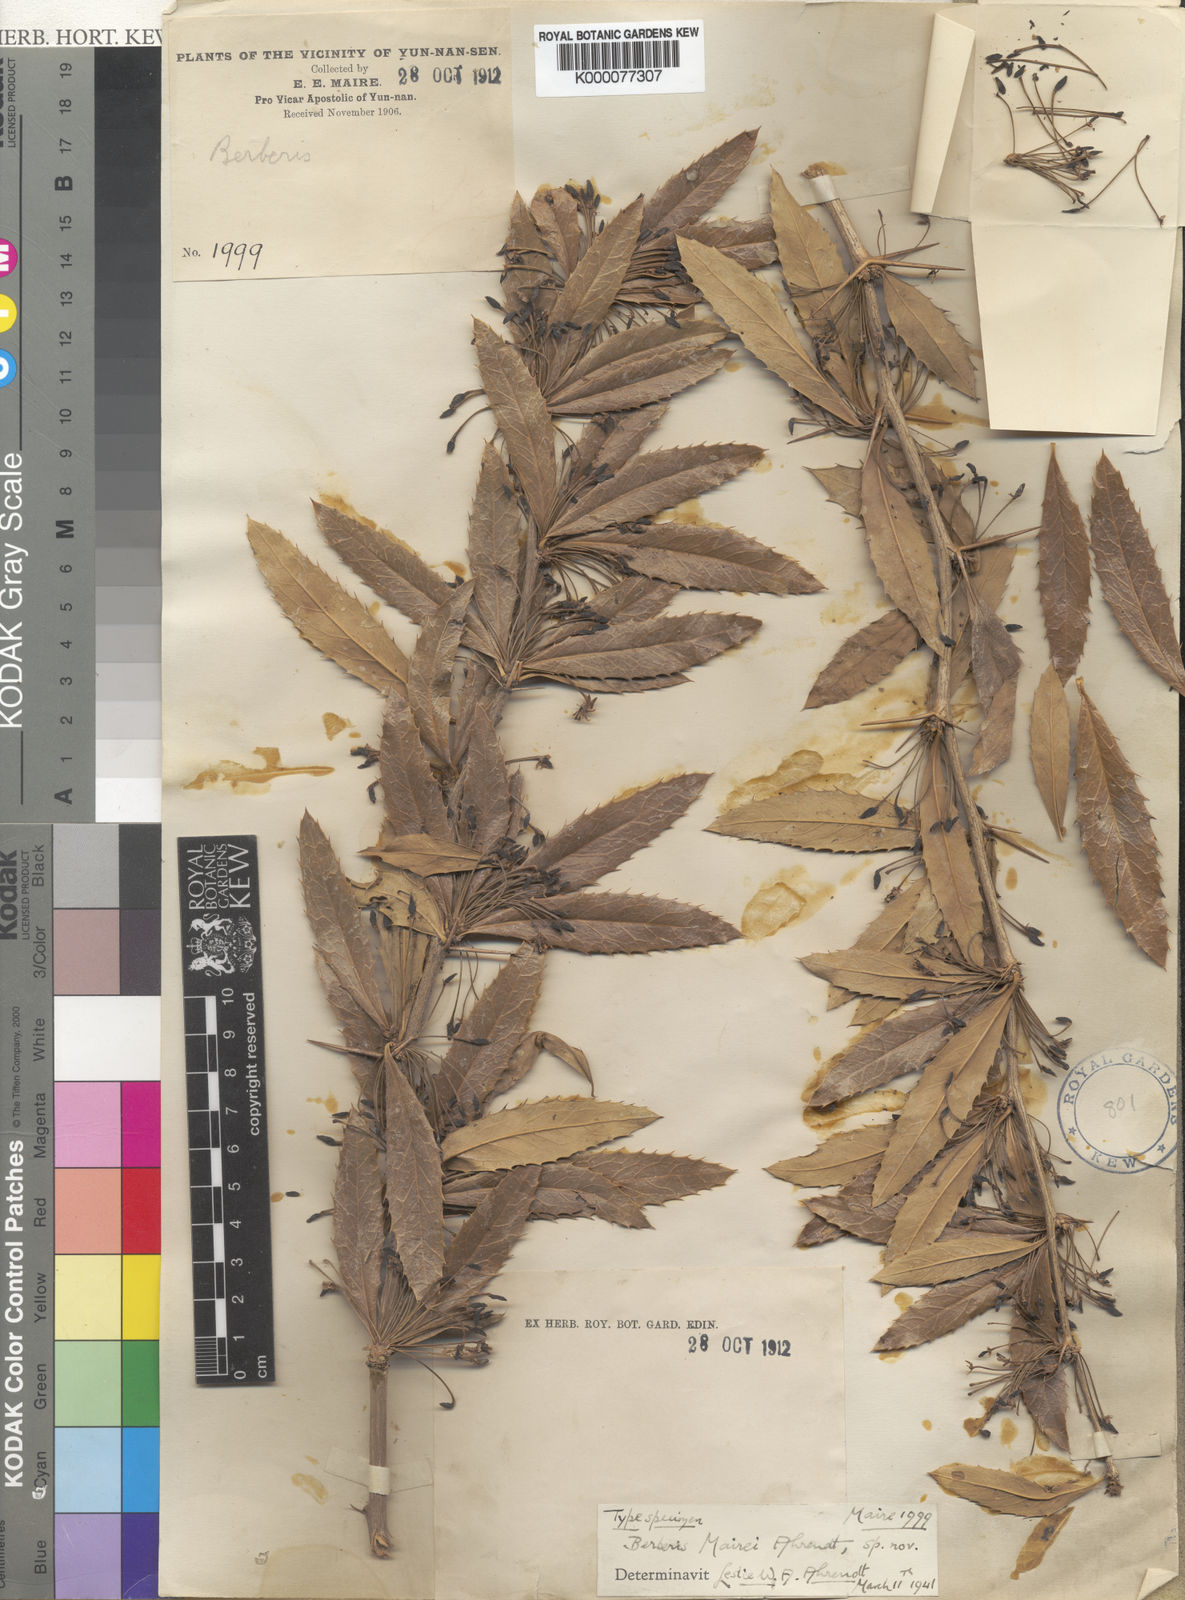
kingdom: Plantae
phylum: Tracheophyta
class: Magnoliopsida
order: Ranunculales
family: Berberidaceae
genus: Berberis
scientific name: Berberis wangii
